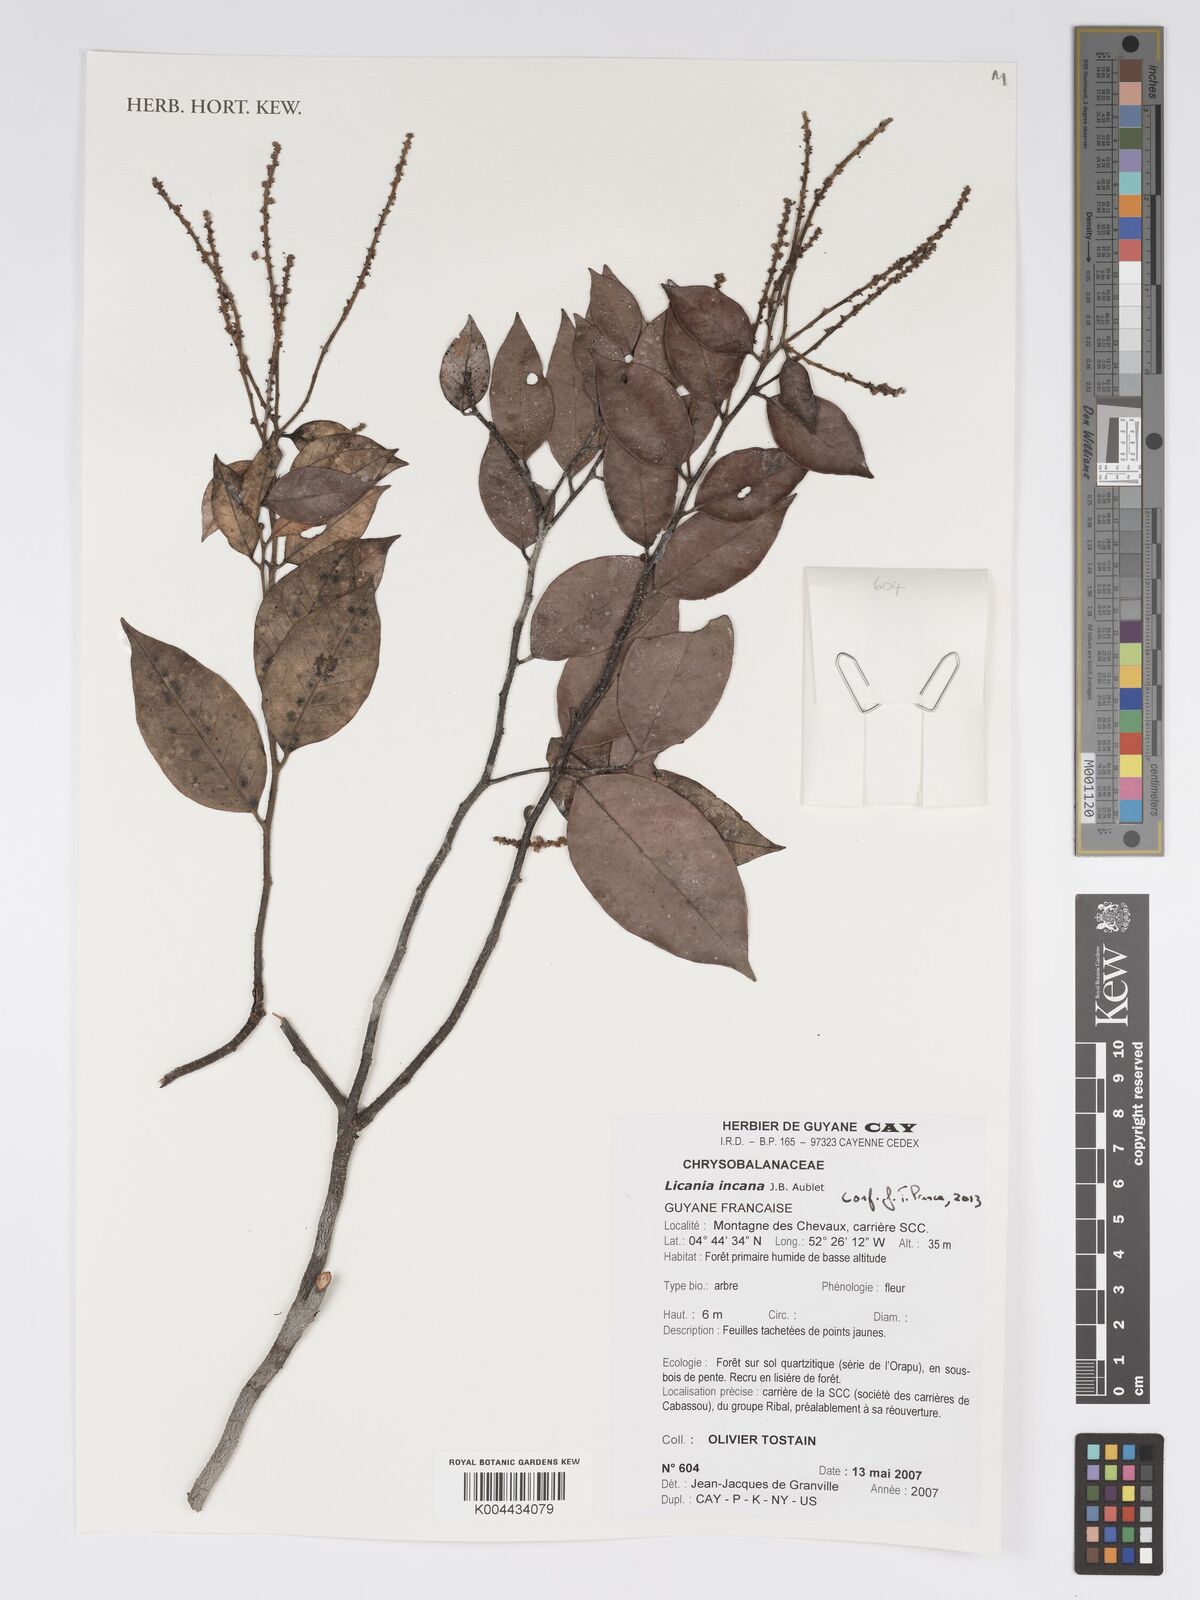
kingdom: Plantae
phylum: Tracheophyta
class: Magnoliopsida
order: Malpighiales
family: Chrysobalanaceae
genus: Licania
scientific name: Licania incana
